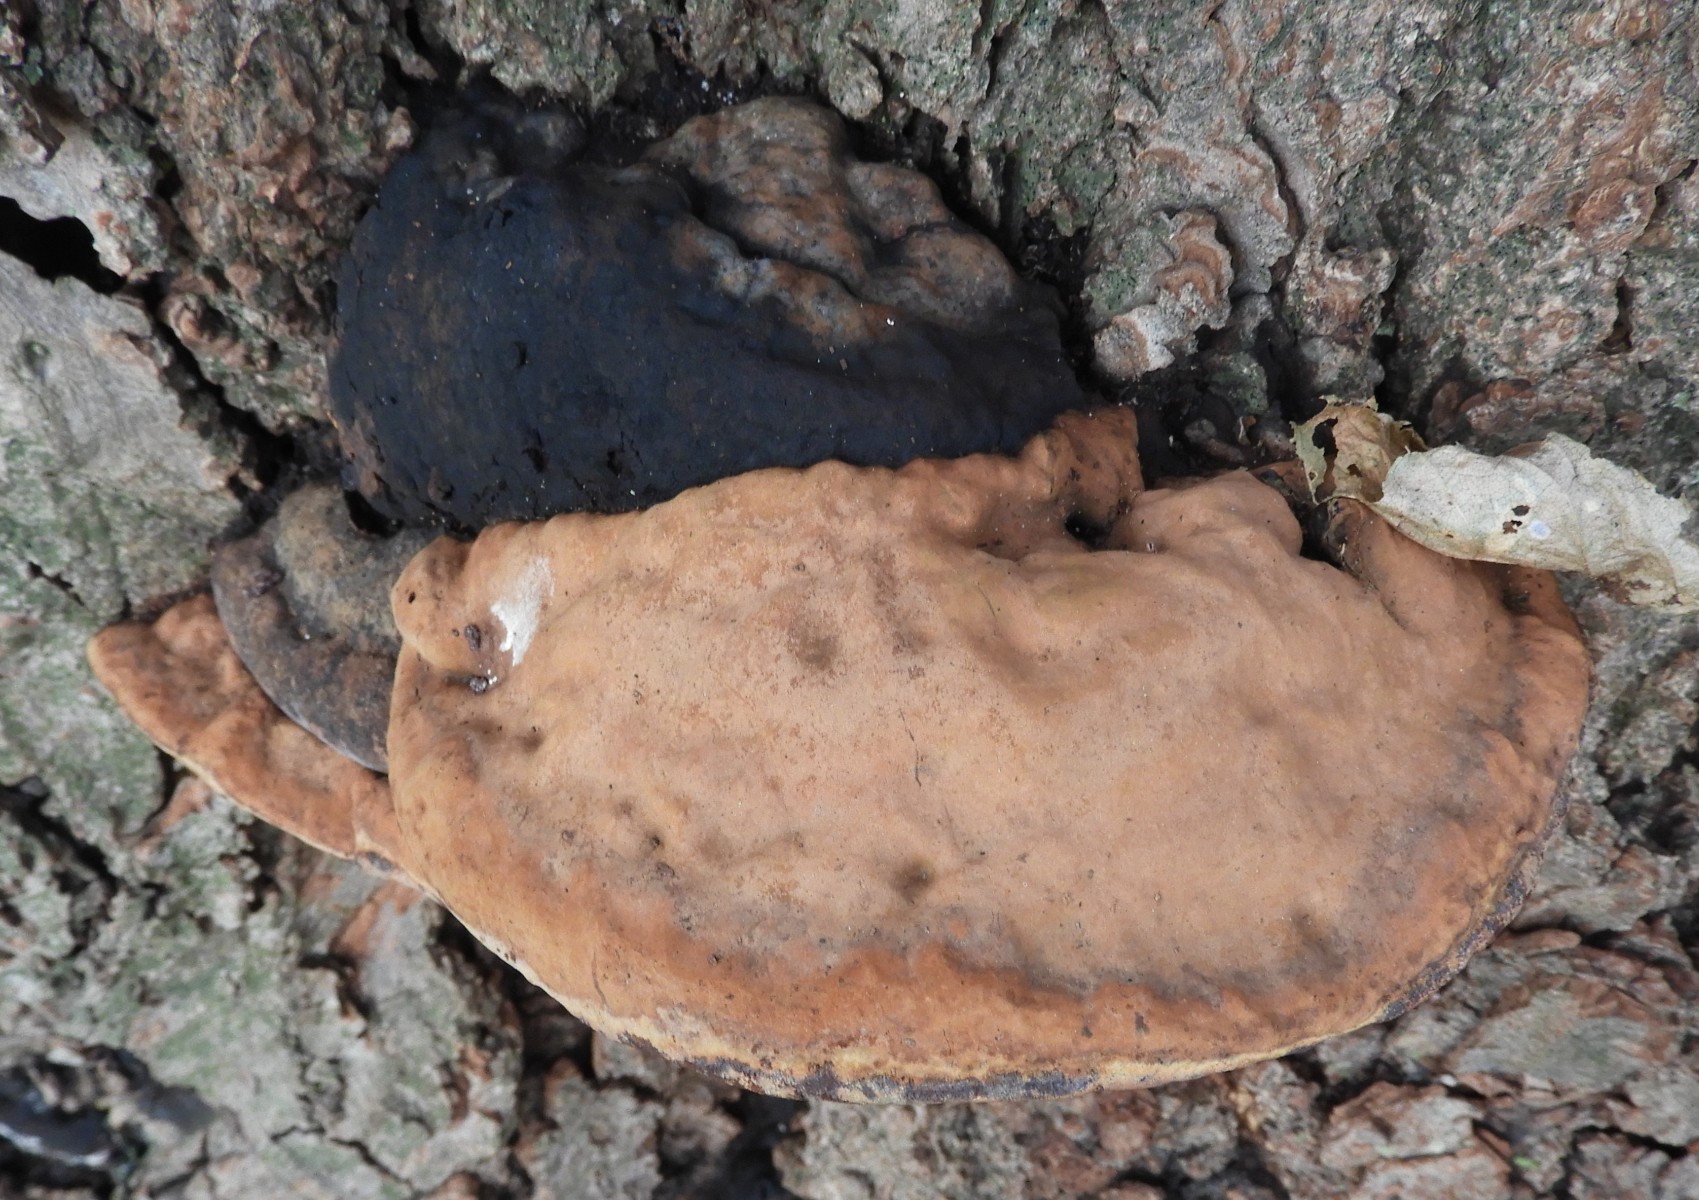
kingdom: Fungi
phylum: Basidiomycota
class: Agaricomycetes
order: Polyporales
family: Polyporaceae
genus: Ganoderma
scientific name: Ganoderma adspersum
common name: grov lakporesvamp
